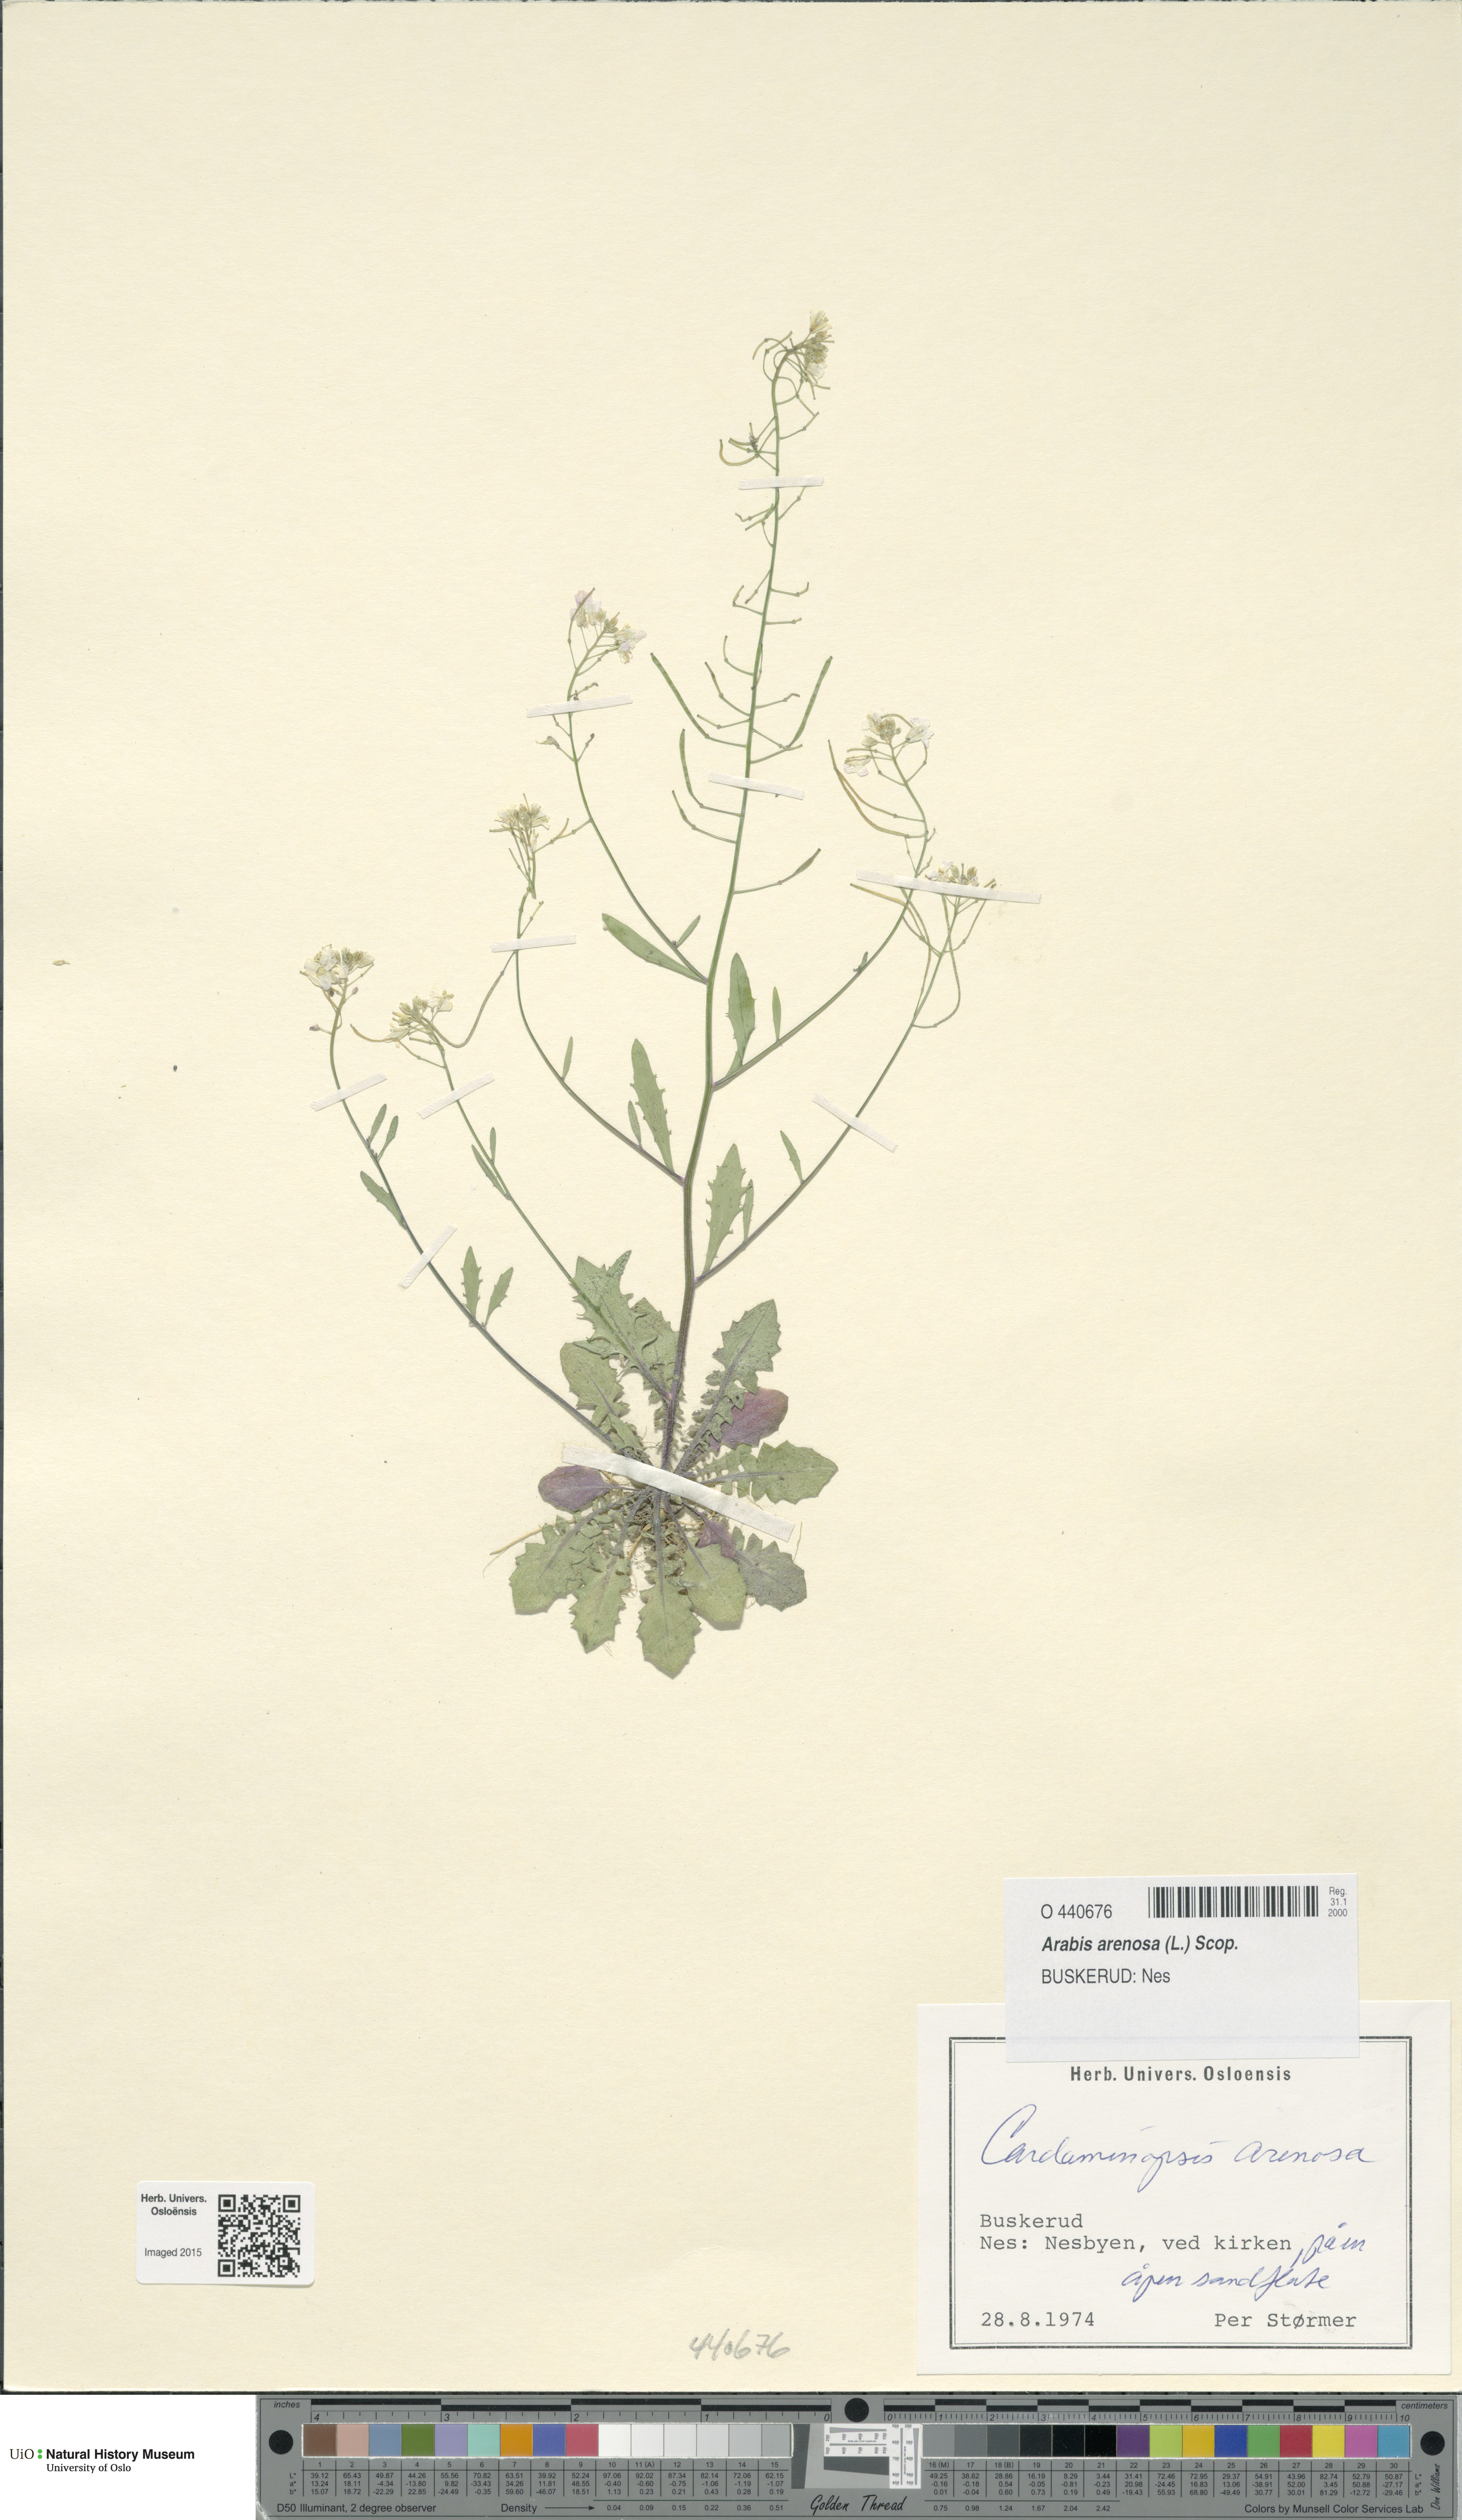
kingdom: Plantae
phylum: Tracheophyta
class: Magnoliopsida
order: Brassicales
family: Brassicaceae
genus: Arabidopsis
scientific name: Arabidopsis arenosa
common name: Sand rock-cress
